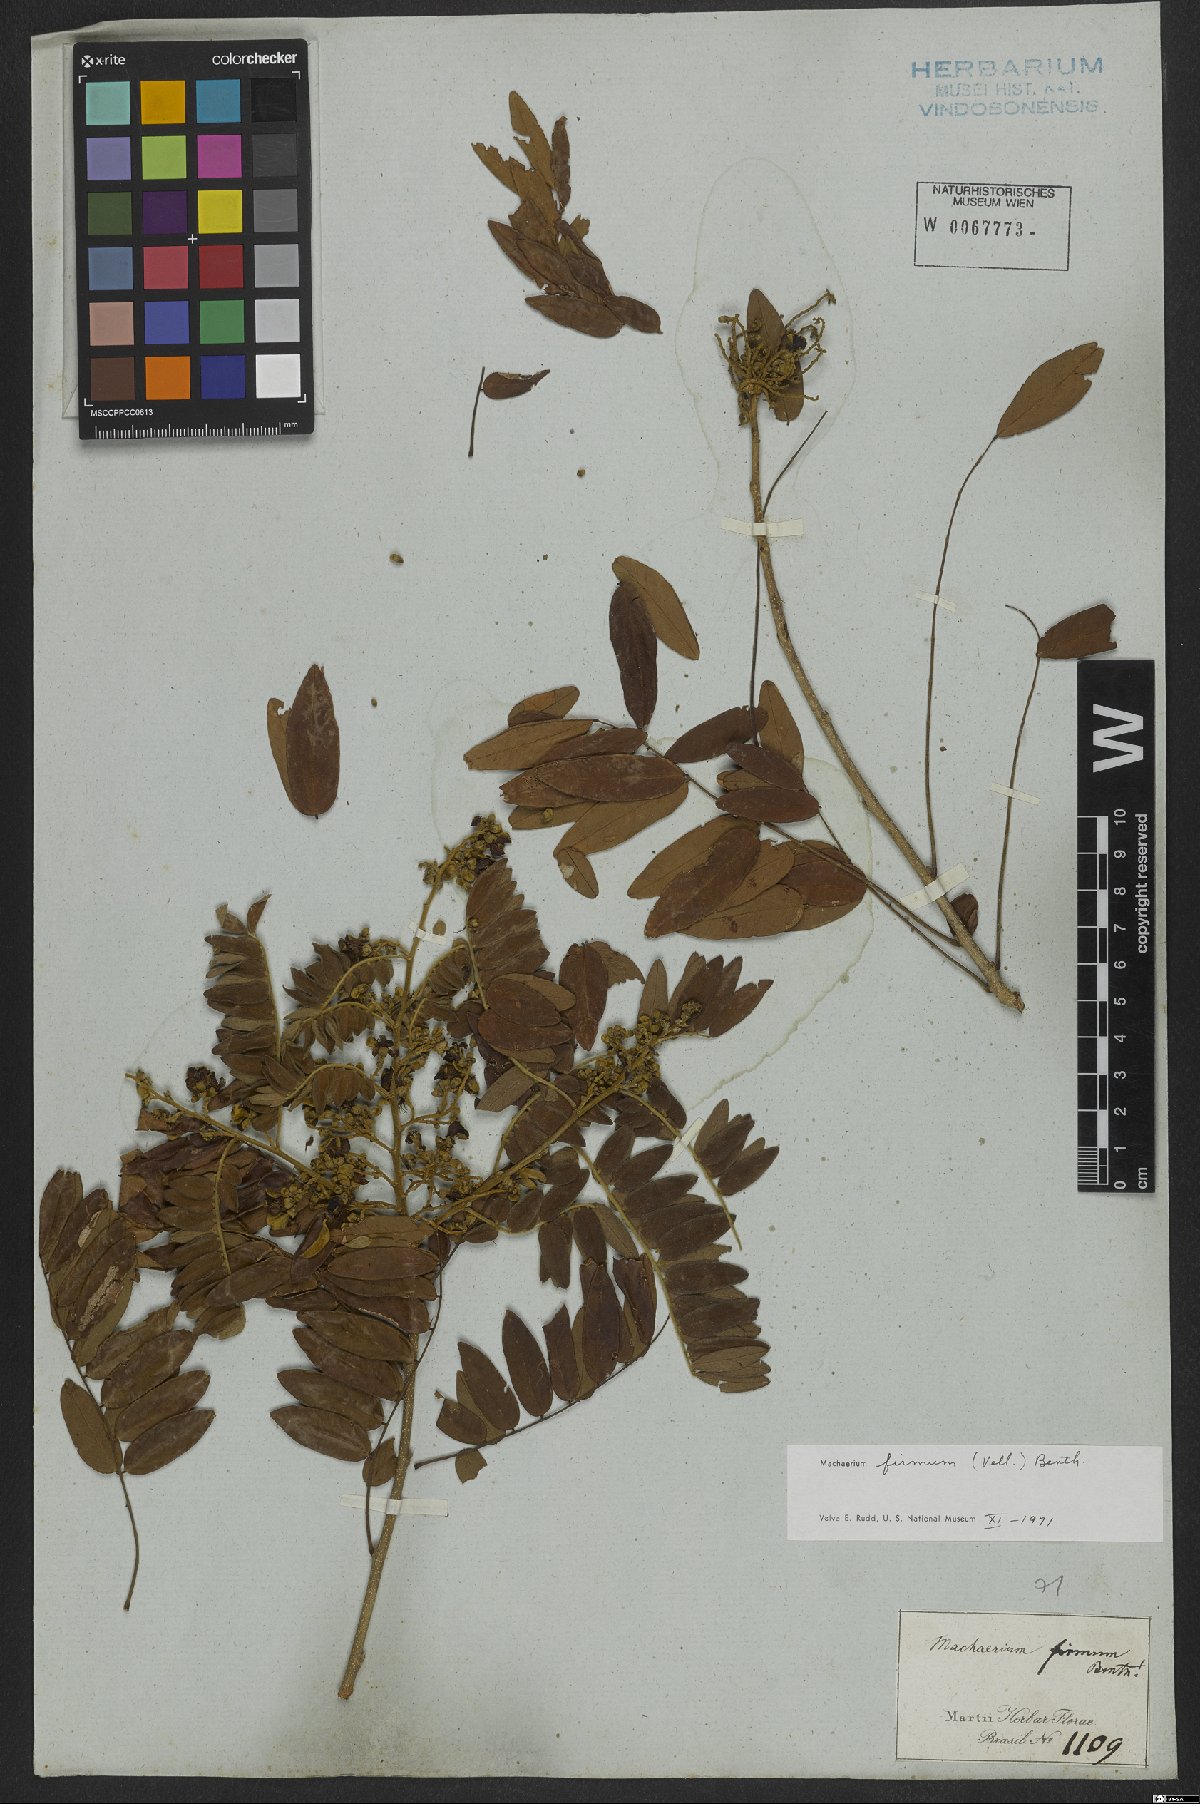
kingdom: Plantae
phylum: Tracheophyta
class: Magnoliopsida
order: Fabales
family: Fabaceae
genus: Machaerium
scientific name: Machaerium firmum
